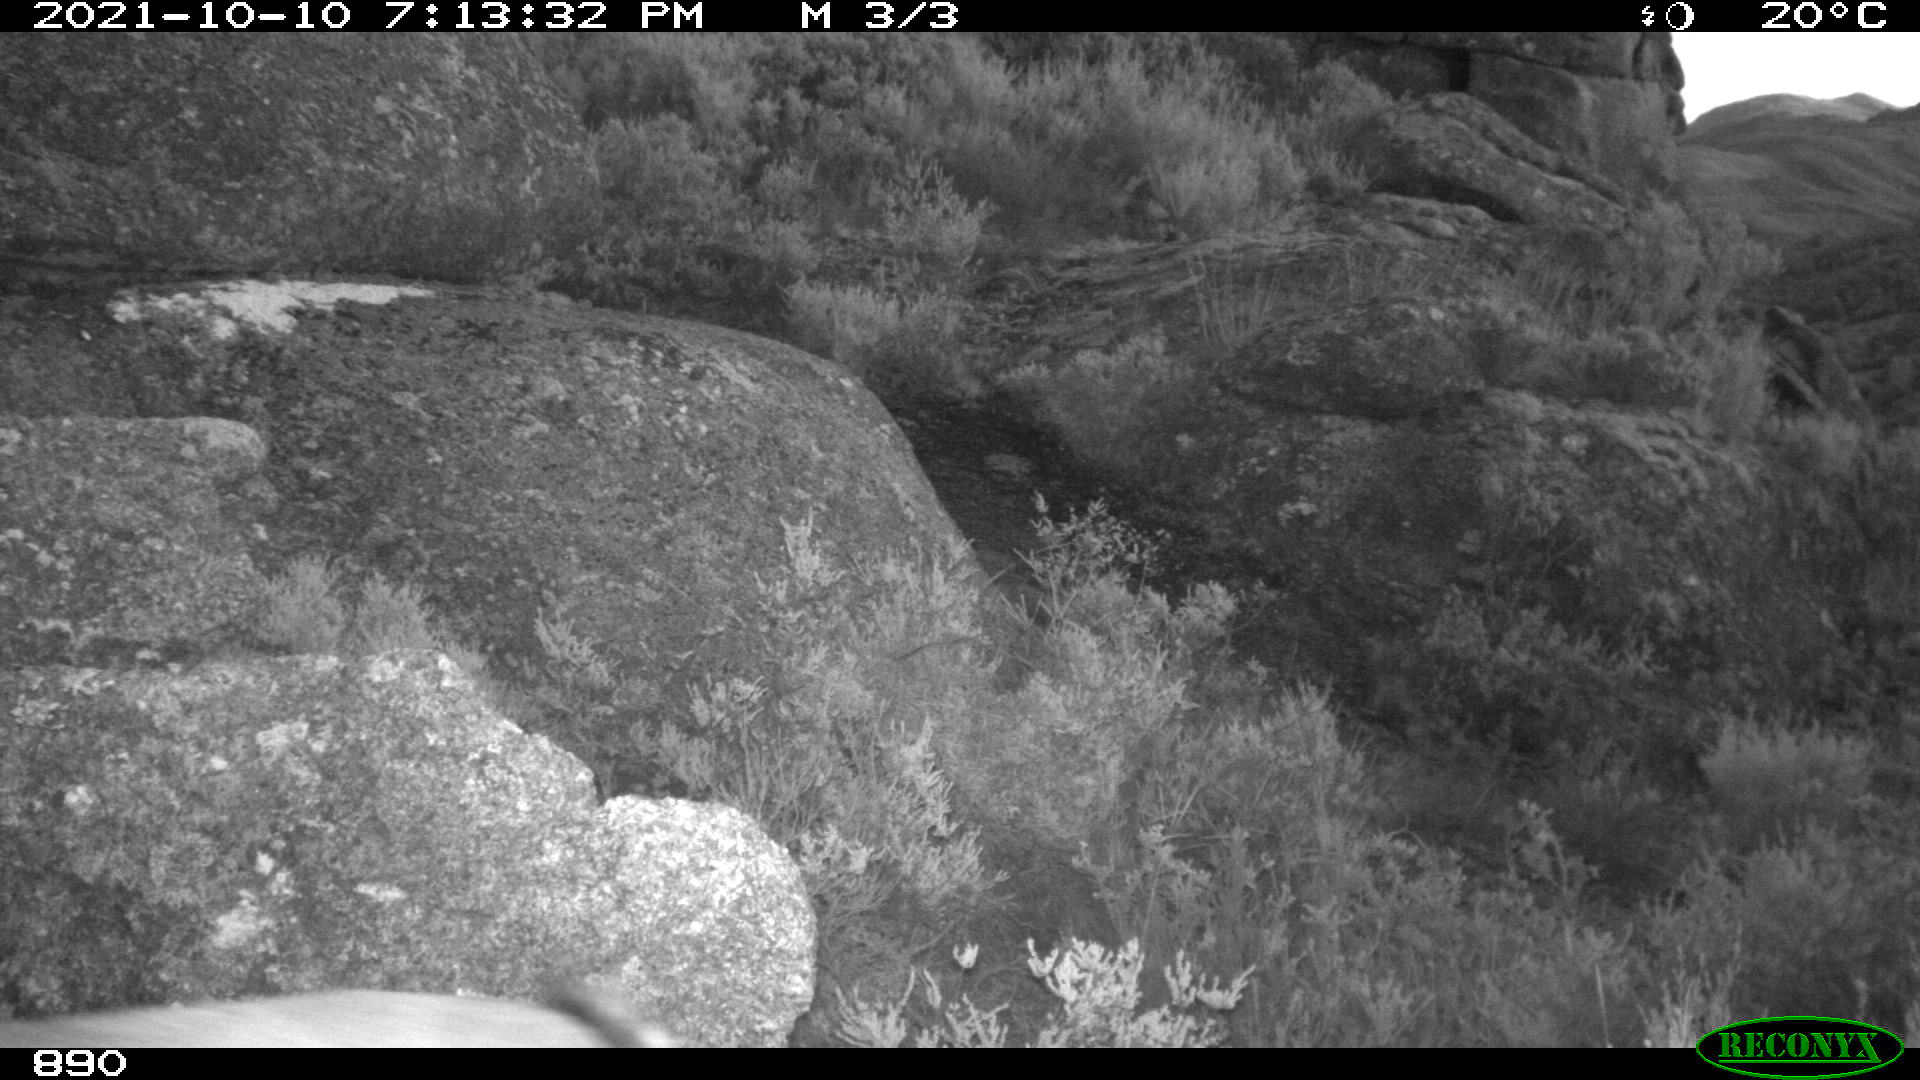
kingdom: Animalia
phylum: Chordata
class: Mammalia
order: Artiodactyla
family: Bovidae
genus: Capra
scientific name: Capra pyrenaica
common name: Spanish ibex
